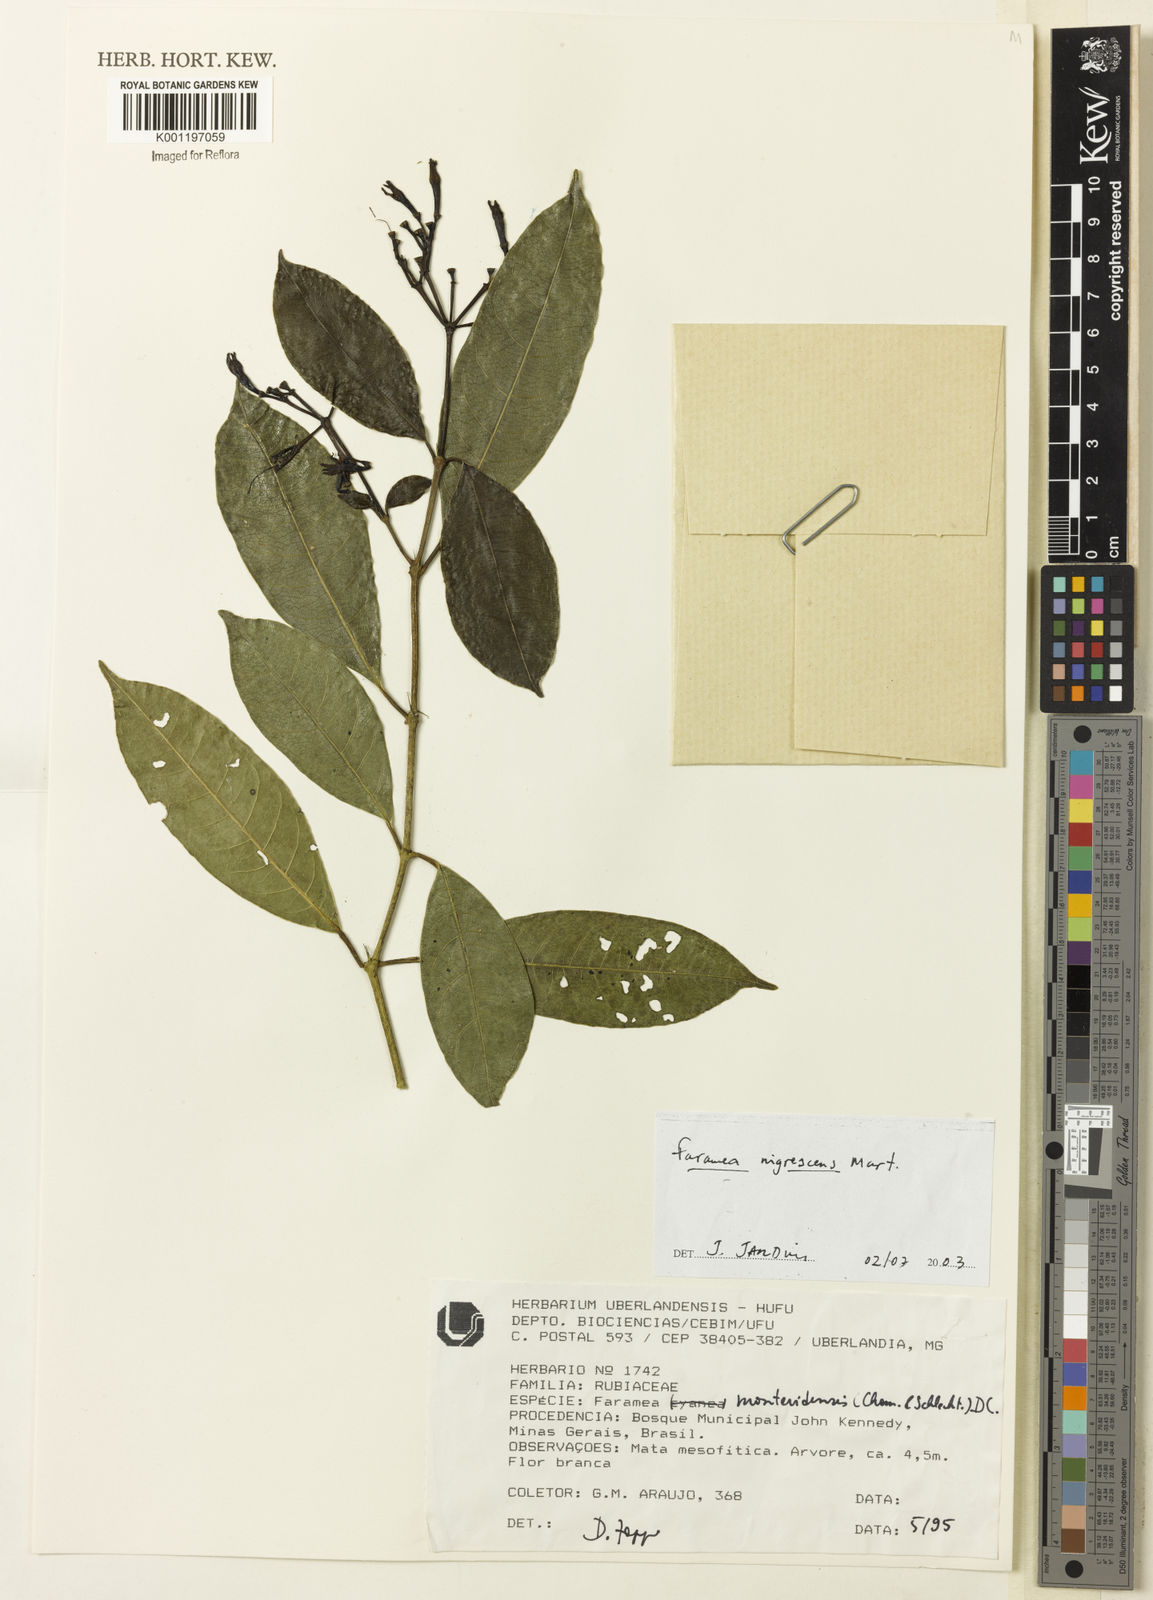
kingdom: Plantae
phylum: Tracheophyta
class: Magnoliopsida
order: Gentianales
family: Rubiaceae
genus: Faramea
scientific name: Faramea nigrescens
